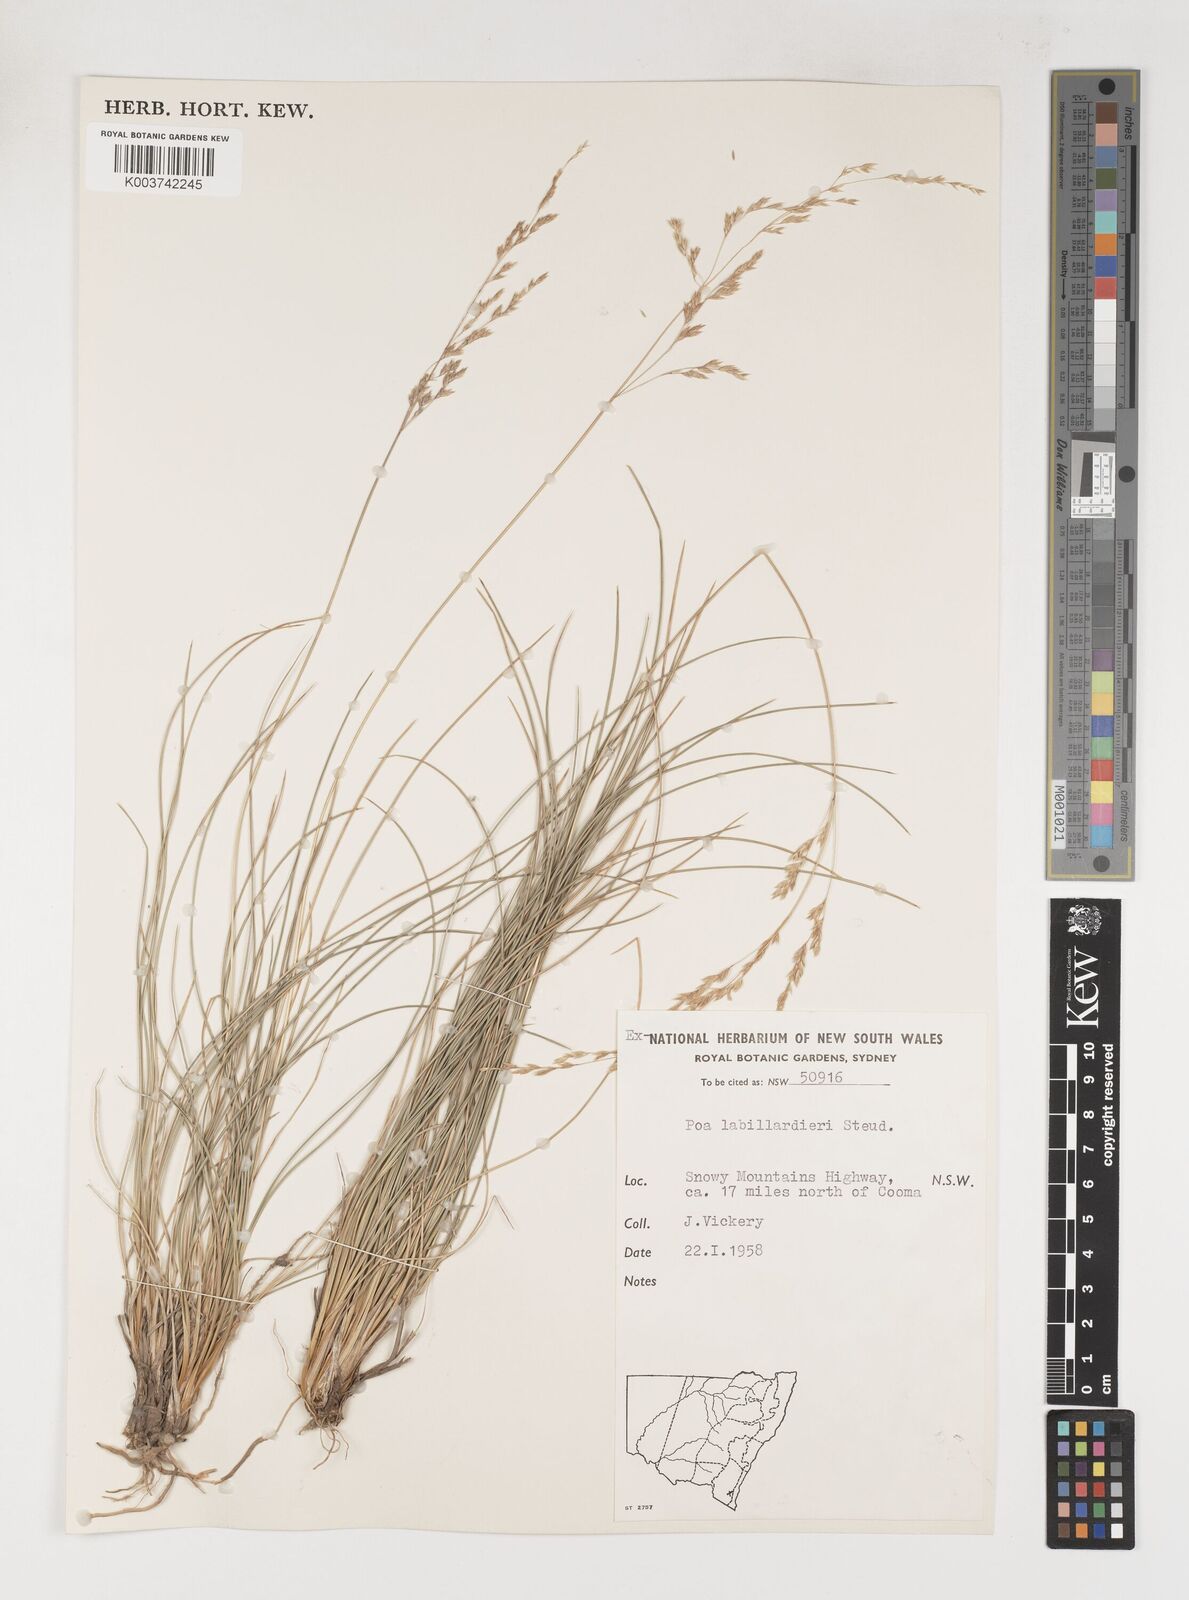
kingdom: Plantae
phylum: Tracheophyta
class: Liliopsida
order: Poales
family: Poaceae
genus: Poa
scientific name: Poa labillardierei
